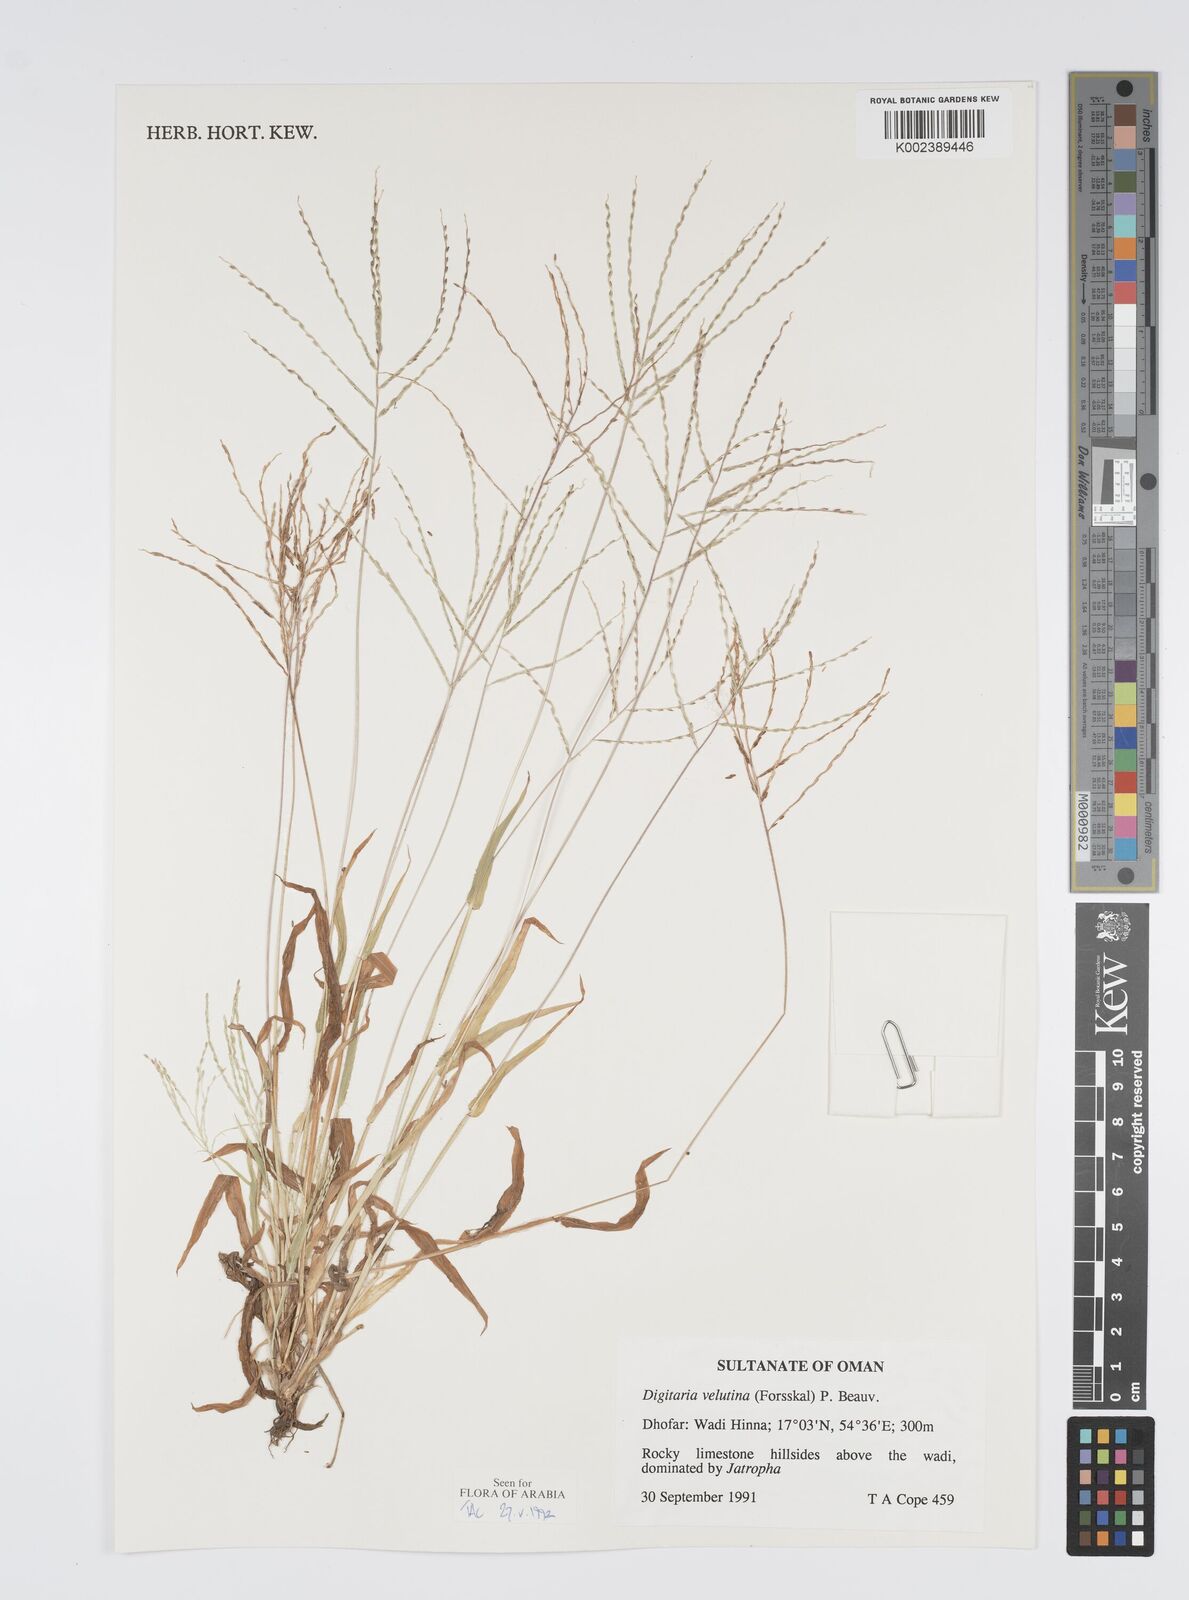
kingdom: Plantae
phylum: Tracheophyta
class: Liliopsida
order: Poales
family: Poaceae
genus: Digitaria
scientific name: Digitaria velutina
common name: Long-plume finger grass
